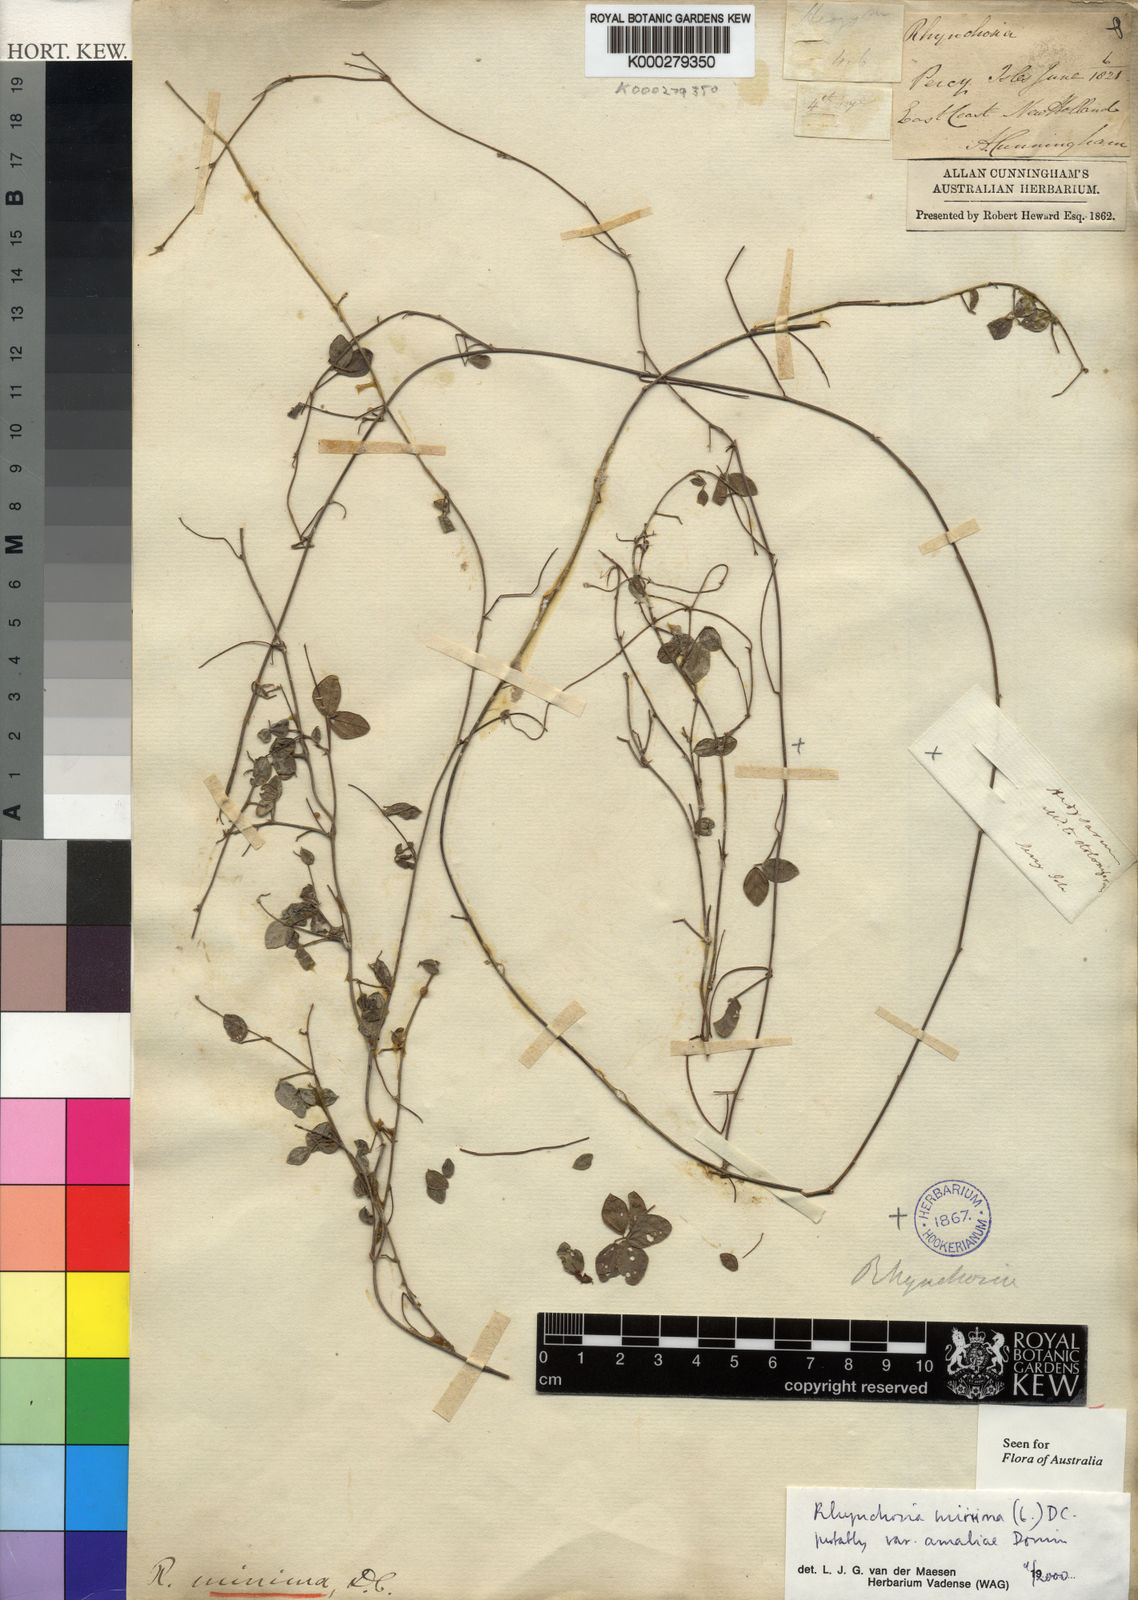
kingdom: Plantae
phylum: Tracheophyta
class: Magnoliopsida
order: Fabales
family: Fabaceae
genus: Rhynchosia
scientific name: Rhynchosia minima
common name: Least snoutbean
